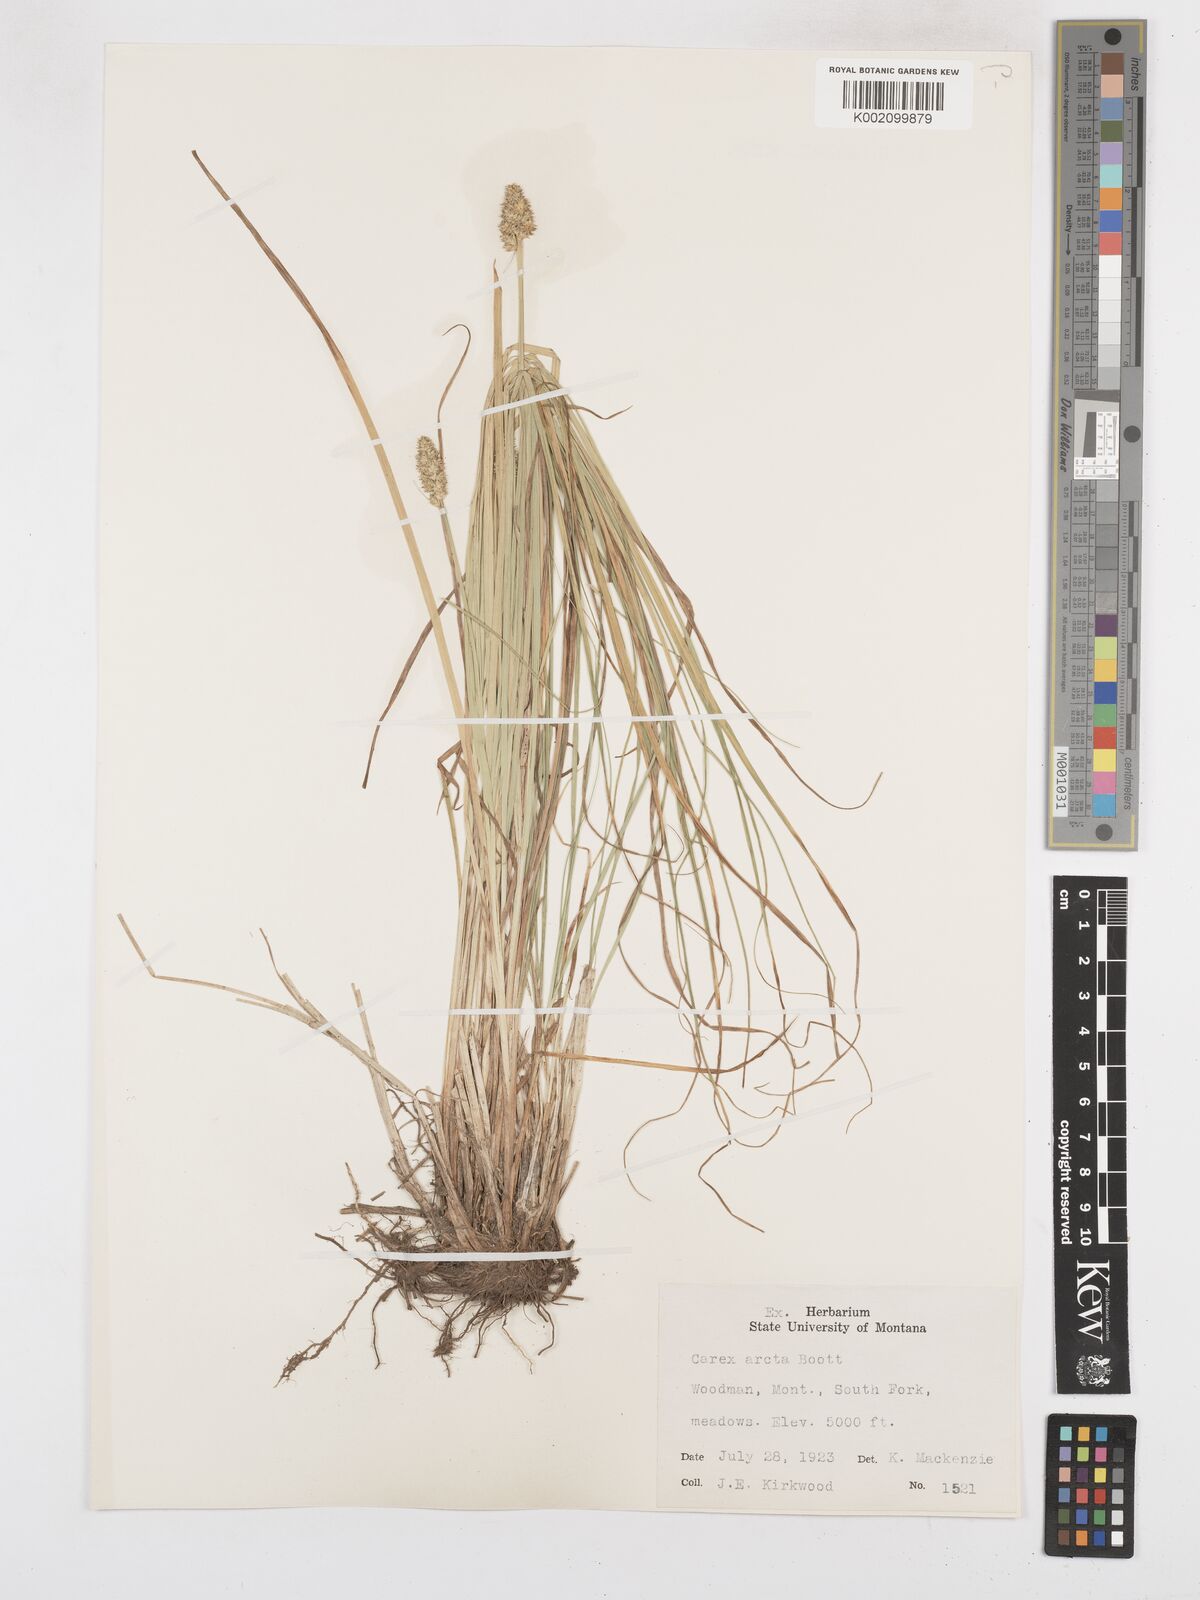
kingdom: Plantae
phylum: Tracheophyta
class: Liliopsida
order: Poales
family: Cyperaceae
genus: Carex
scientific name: Carex arcta
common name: Bear sedge
